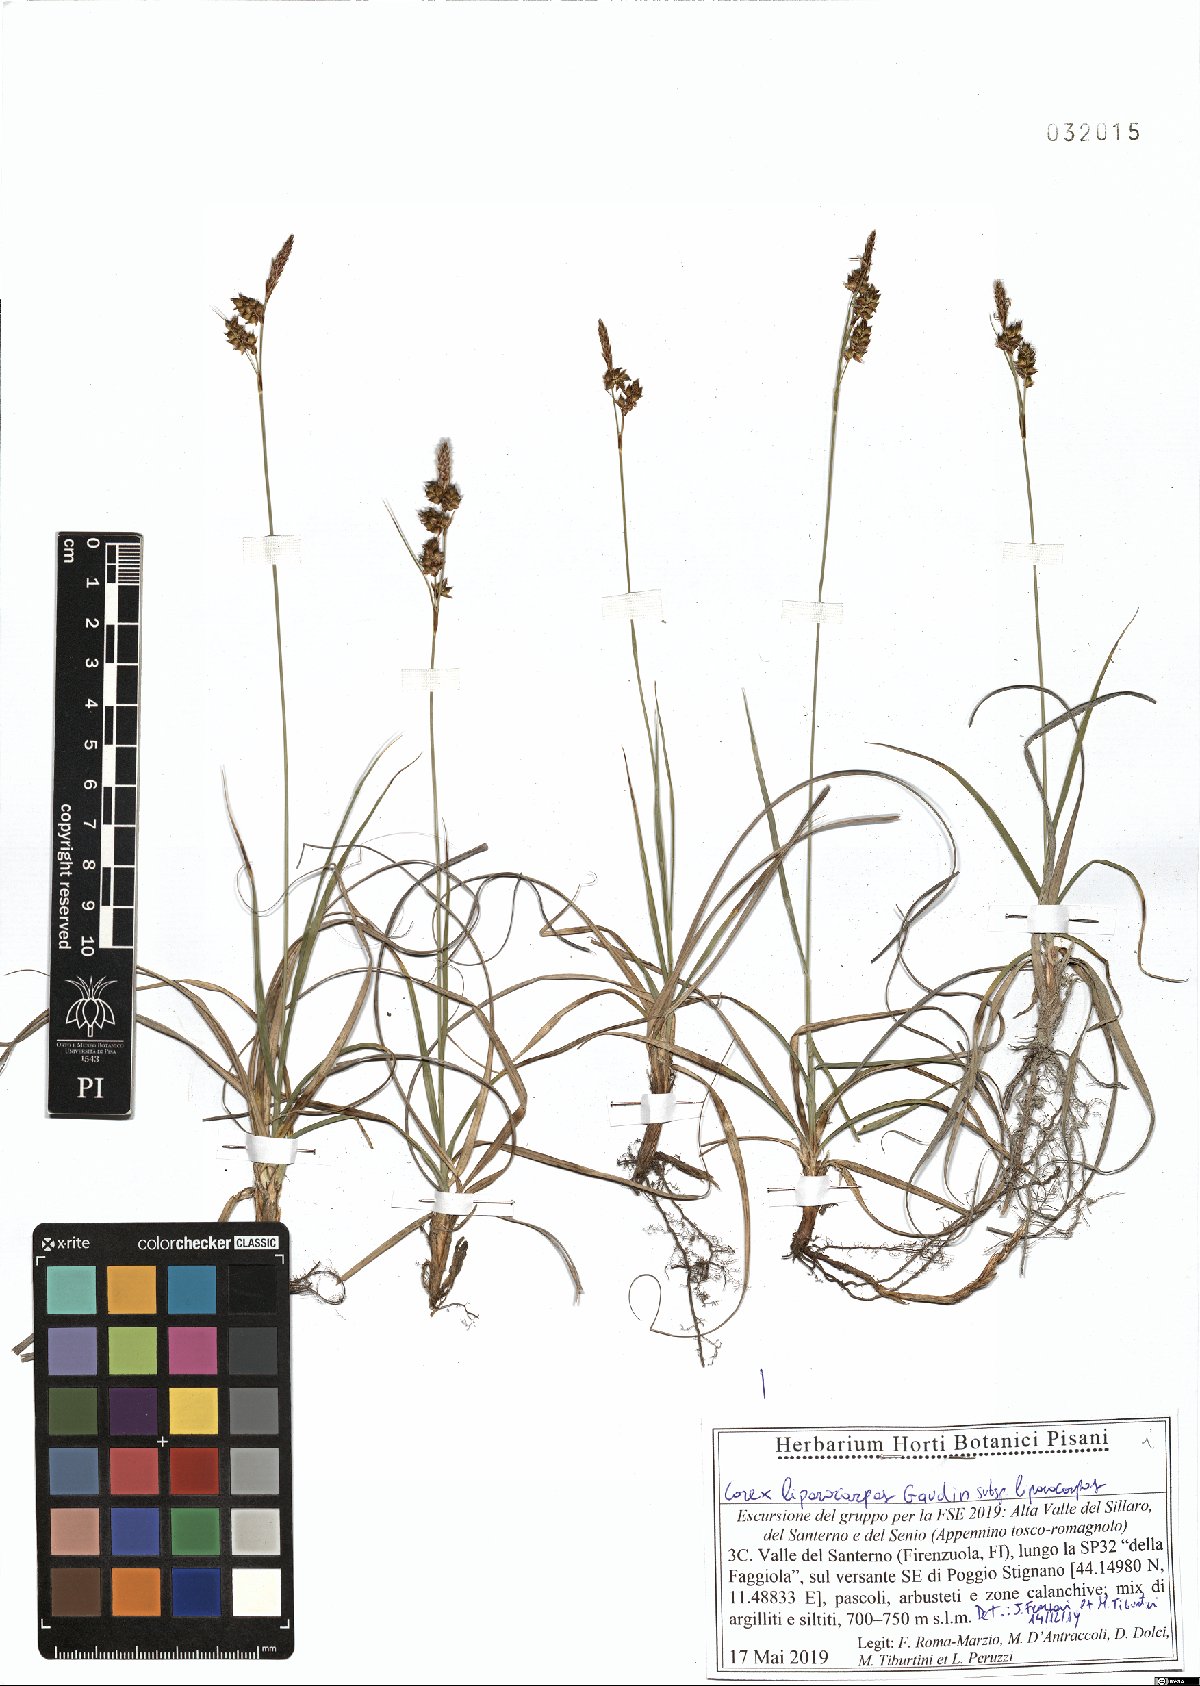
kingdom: Plantae
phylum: Tracheophyta
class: Liliopsida
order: Poales
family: Cyperaceae
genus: Carex
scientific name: Carex liparocarpos
